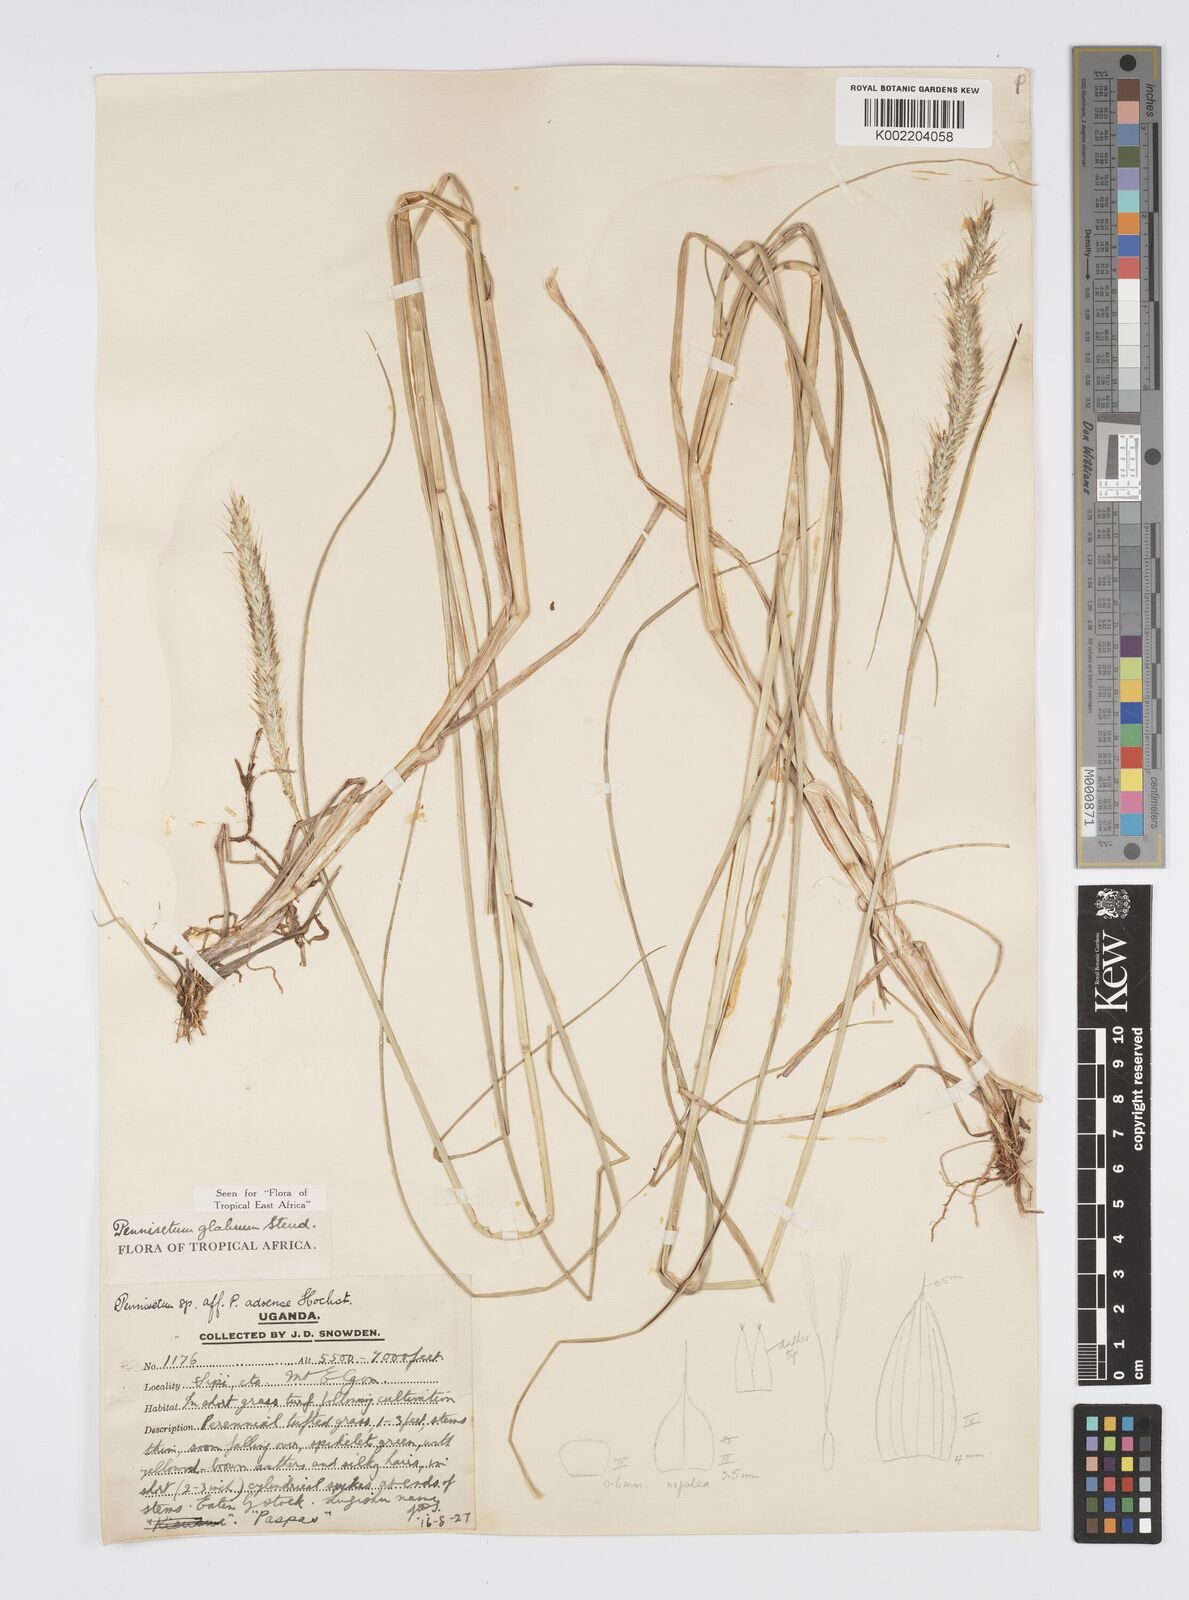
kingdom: Plantae
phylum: Tracheophyta
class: Liliopsida
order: Poales
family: Poaceae
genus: Cenchrus
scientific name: Cenchrus geniculatus
